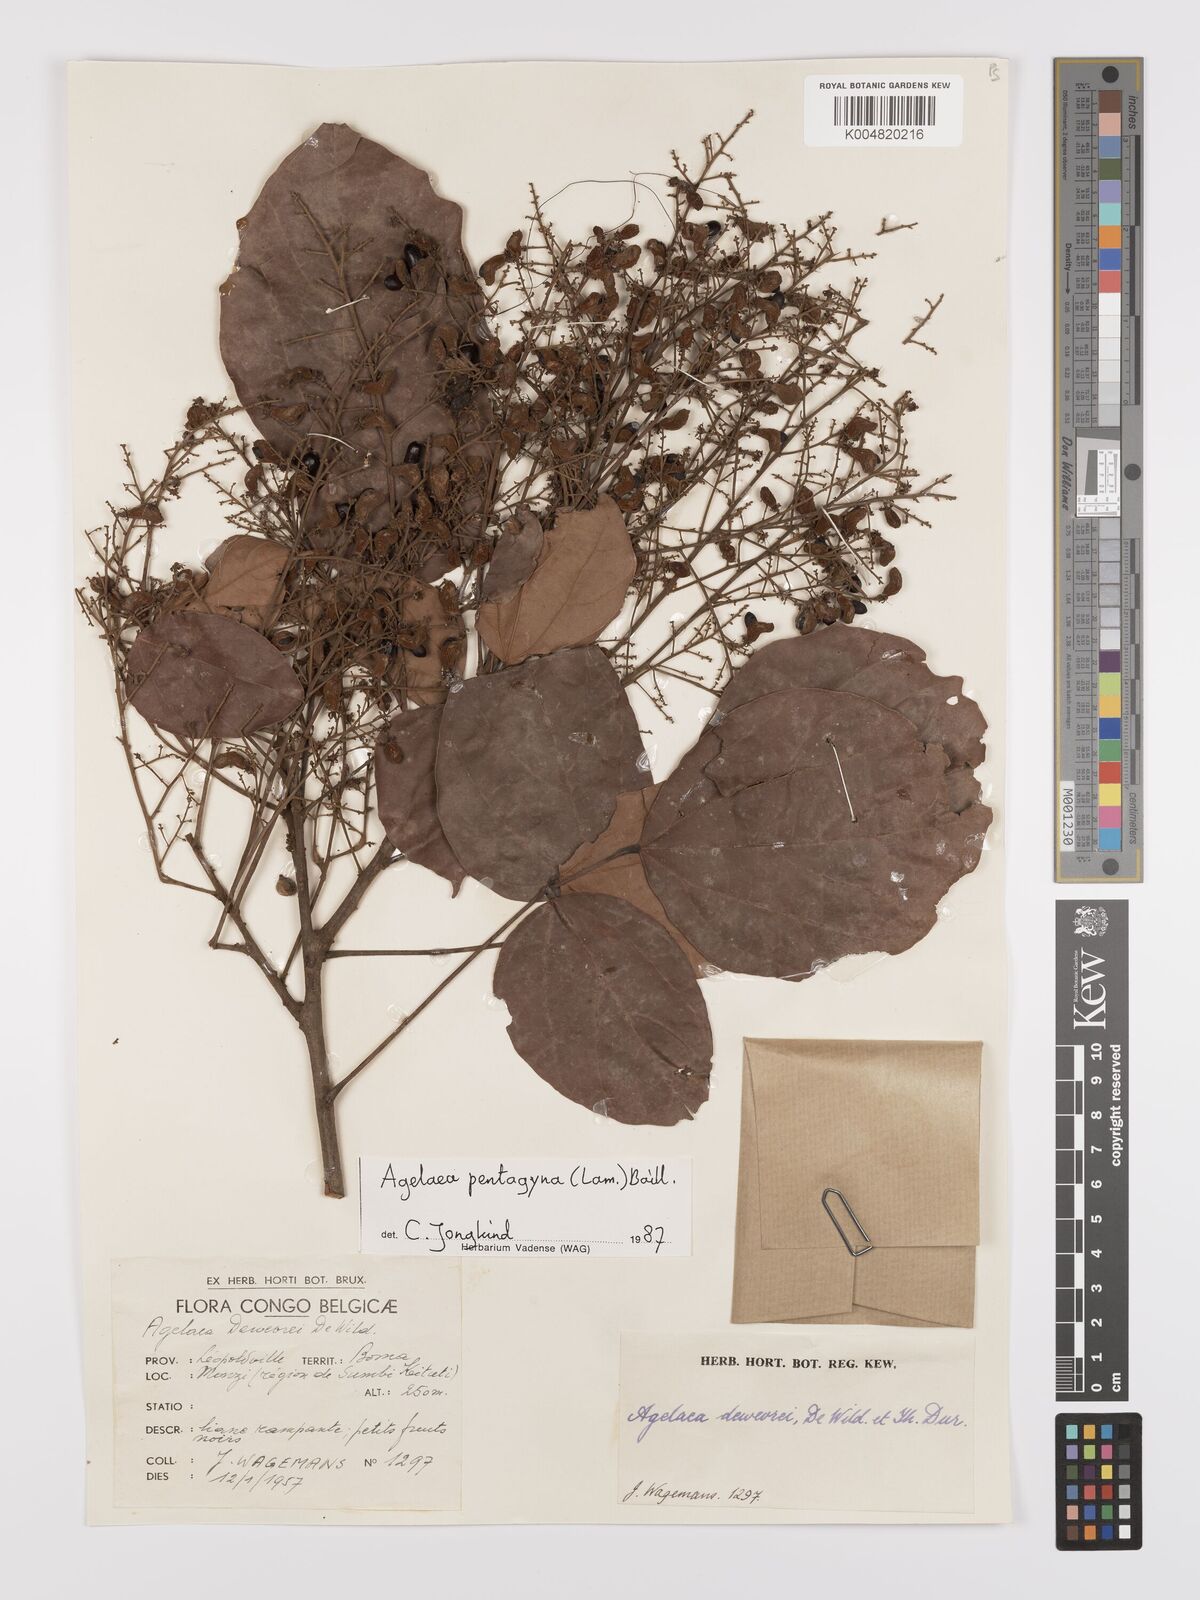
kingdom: Plantae
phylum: Tracheophyta
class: Magnoliopsida
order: Oxalidales
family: Connaraceae
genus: Agelaea
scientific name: Agelaea pentagyna
